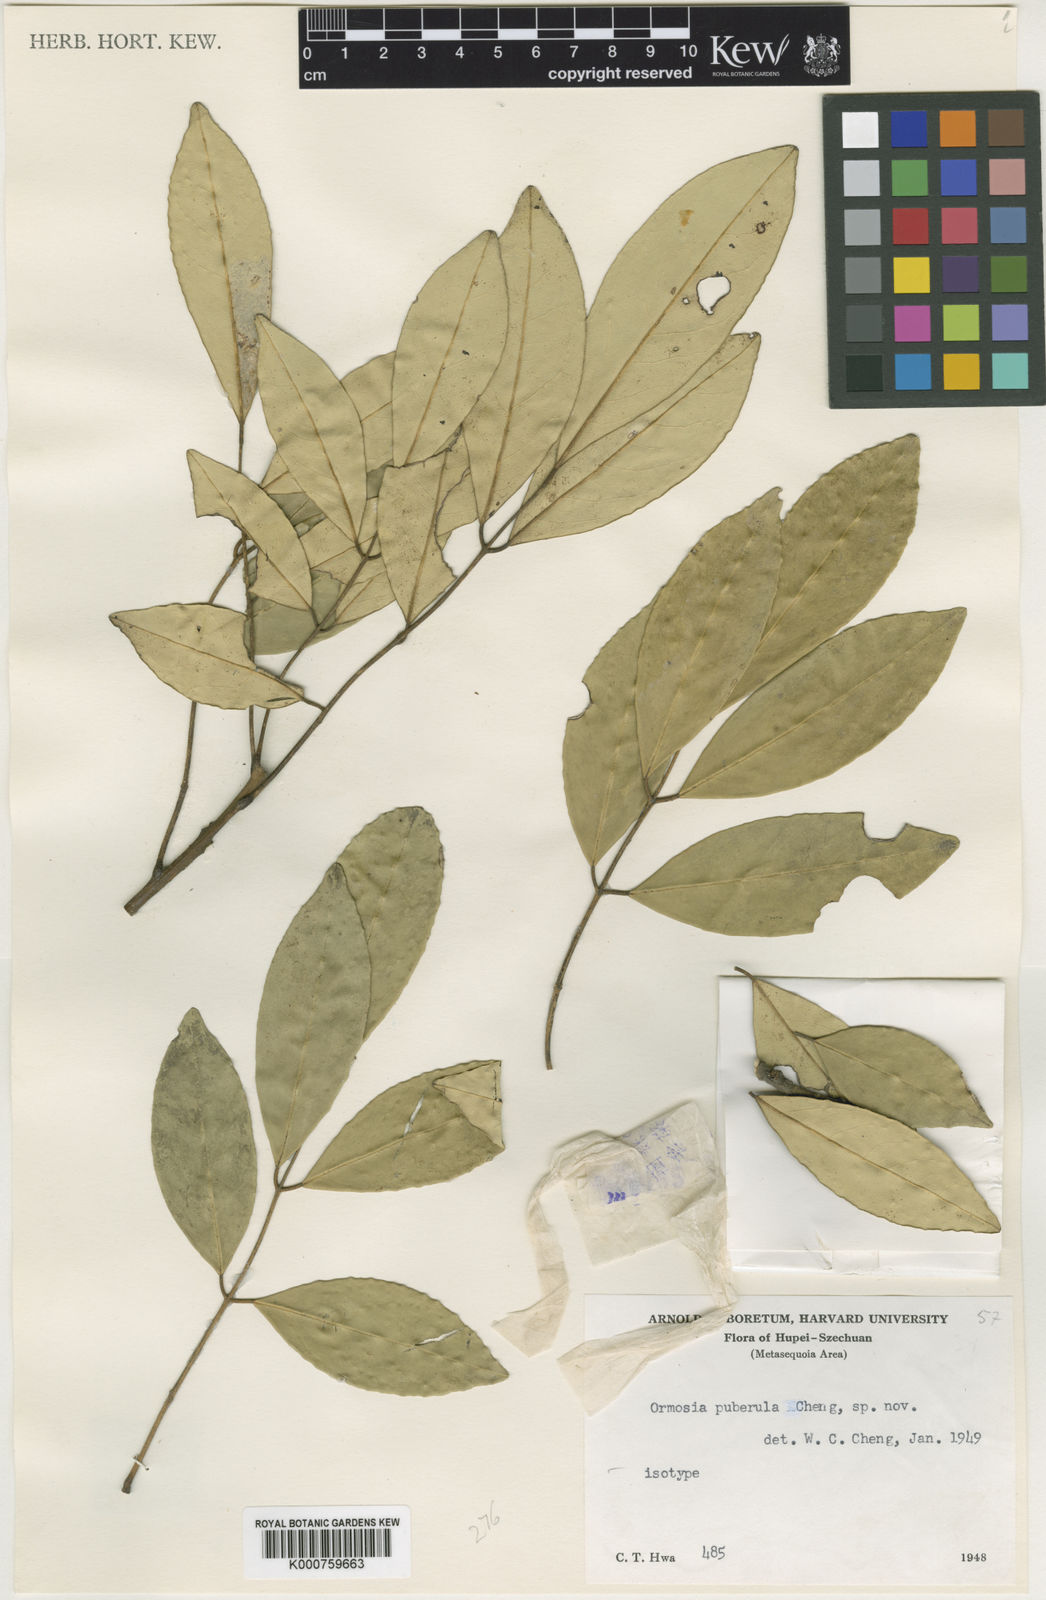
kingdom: Plantae
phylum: Tracheophyta
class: Magnoliopsida
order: Fabales
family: Fabaceae
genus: Ormosia
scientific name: Ormosia
